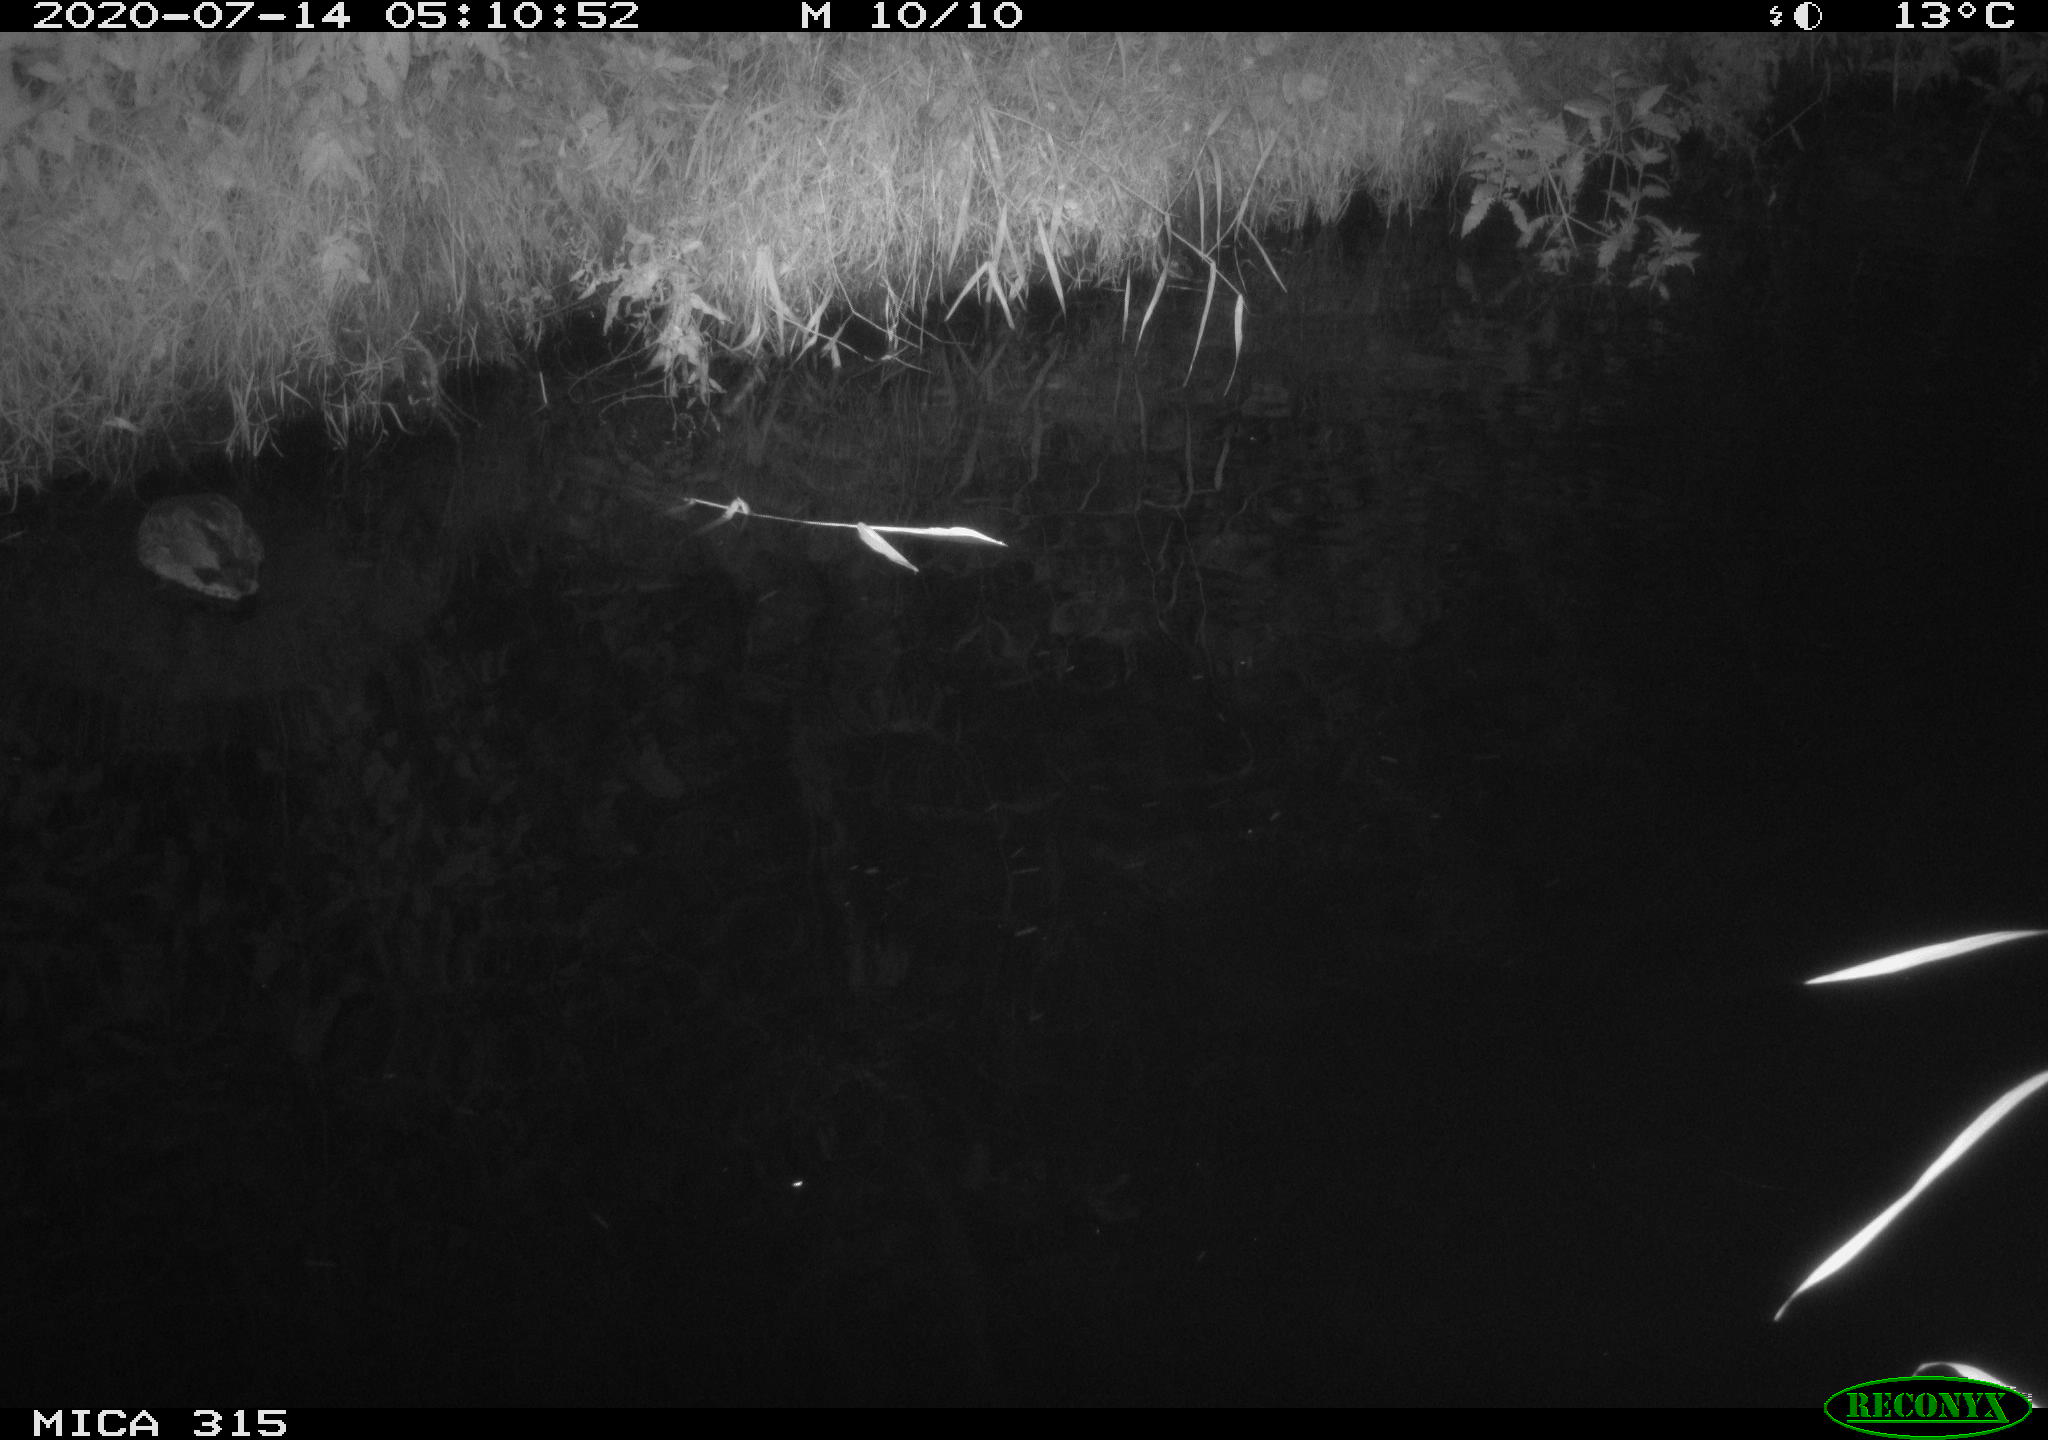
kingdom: Animalia
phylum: Chordata
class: Aves
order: Anseriformes
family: Anatidae
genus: Anas
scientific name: Anas platyrhynchos
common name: Mallard
